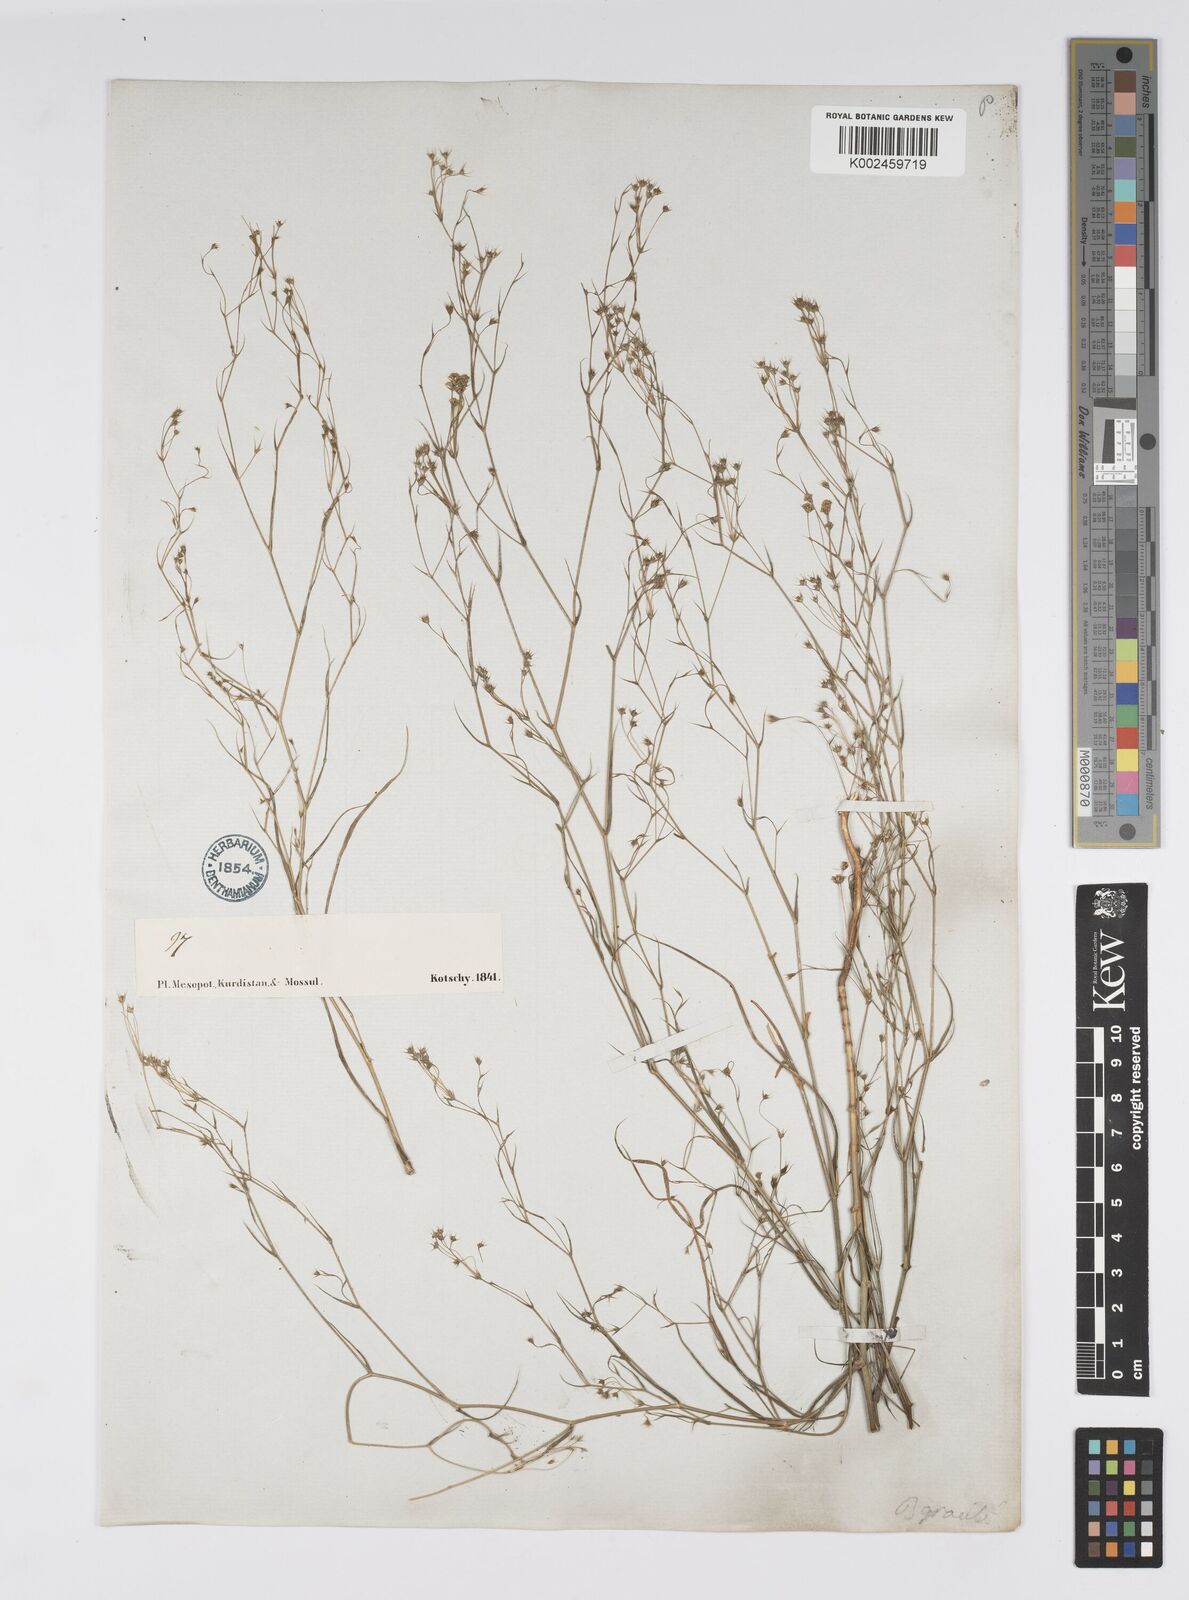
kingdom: Plantae
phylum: Tracheophyta
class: Magnoliopsida
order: Apiales
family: Apiaceae
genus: Bupleurum
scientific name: Bupleurum cappadocicum
